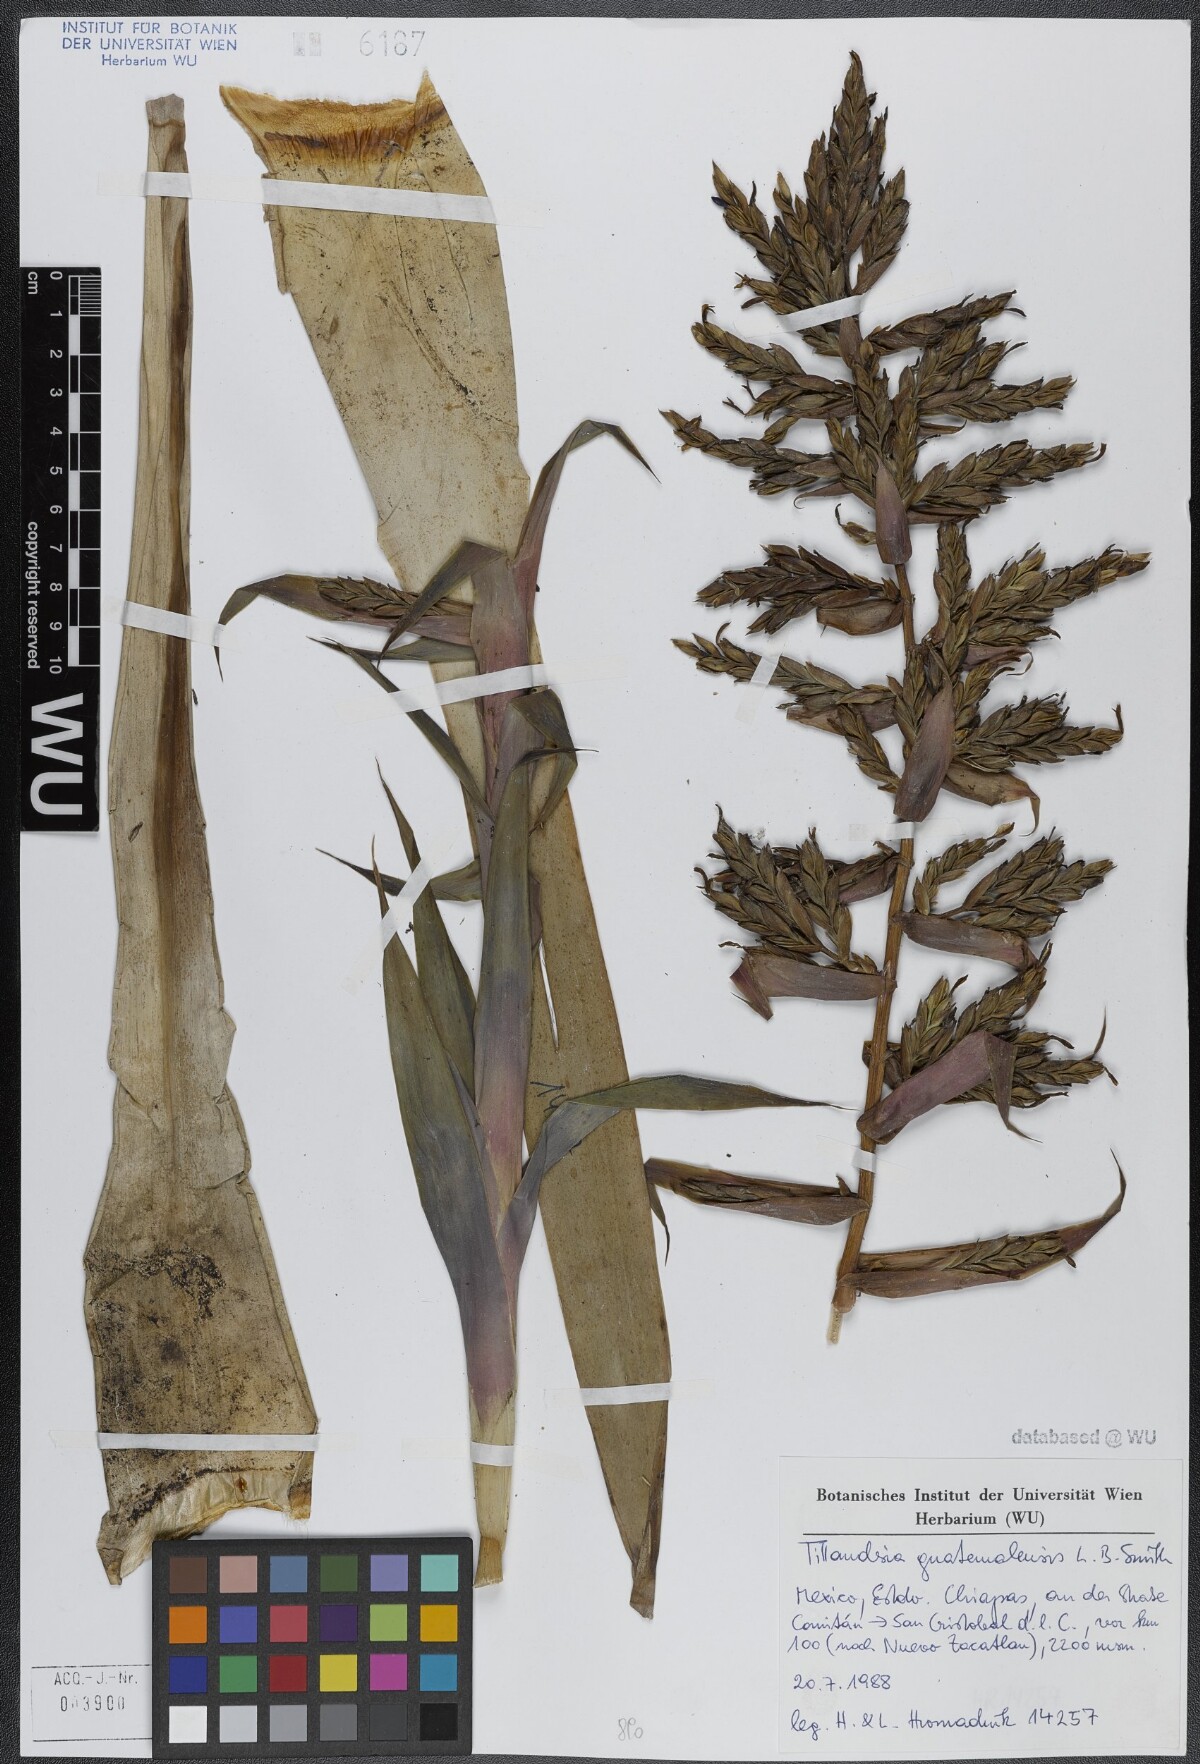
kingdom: Plantae
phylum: Tracheophyta
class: Liliopsida
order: Poales
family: Bromeliaceae
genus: Tillandsia
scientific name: Tillandsia guatemalensis
